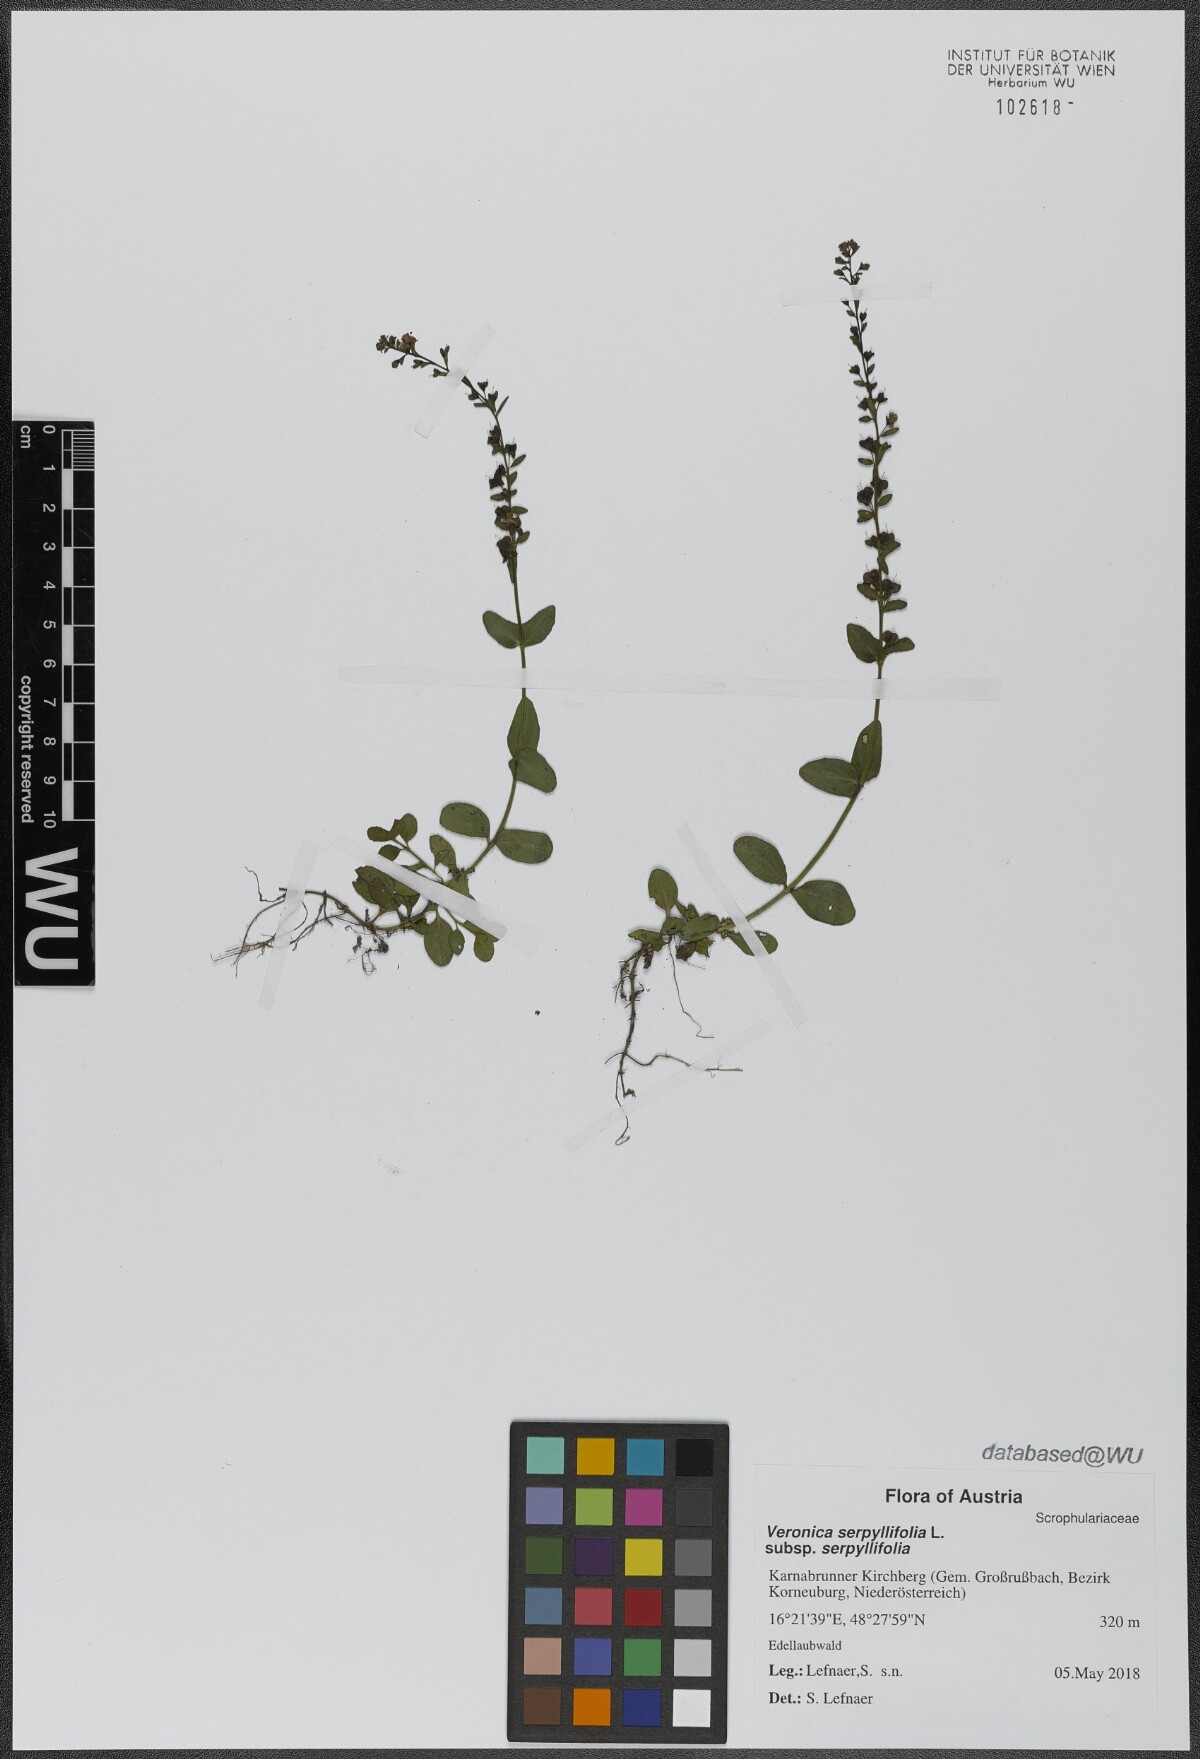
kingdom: Plantae
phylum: Tracheophyta
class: Magnoliopsida
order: Lamiales
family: Plantaginaceae
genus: Veronica
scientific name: Veronica serpyllifolia
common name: Thyme-leaved speedwell
